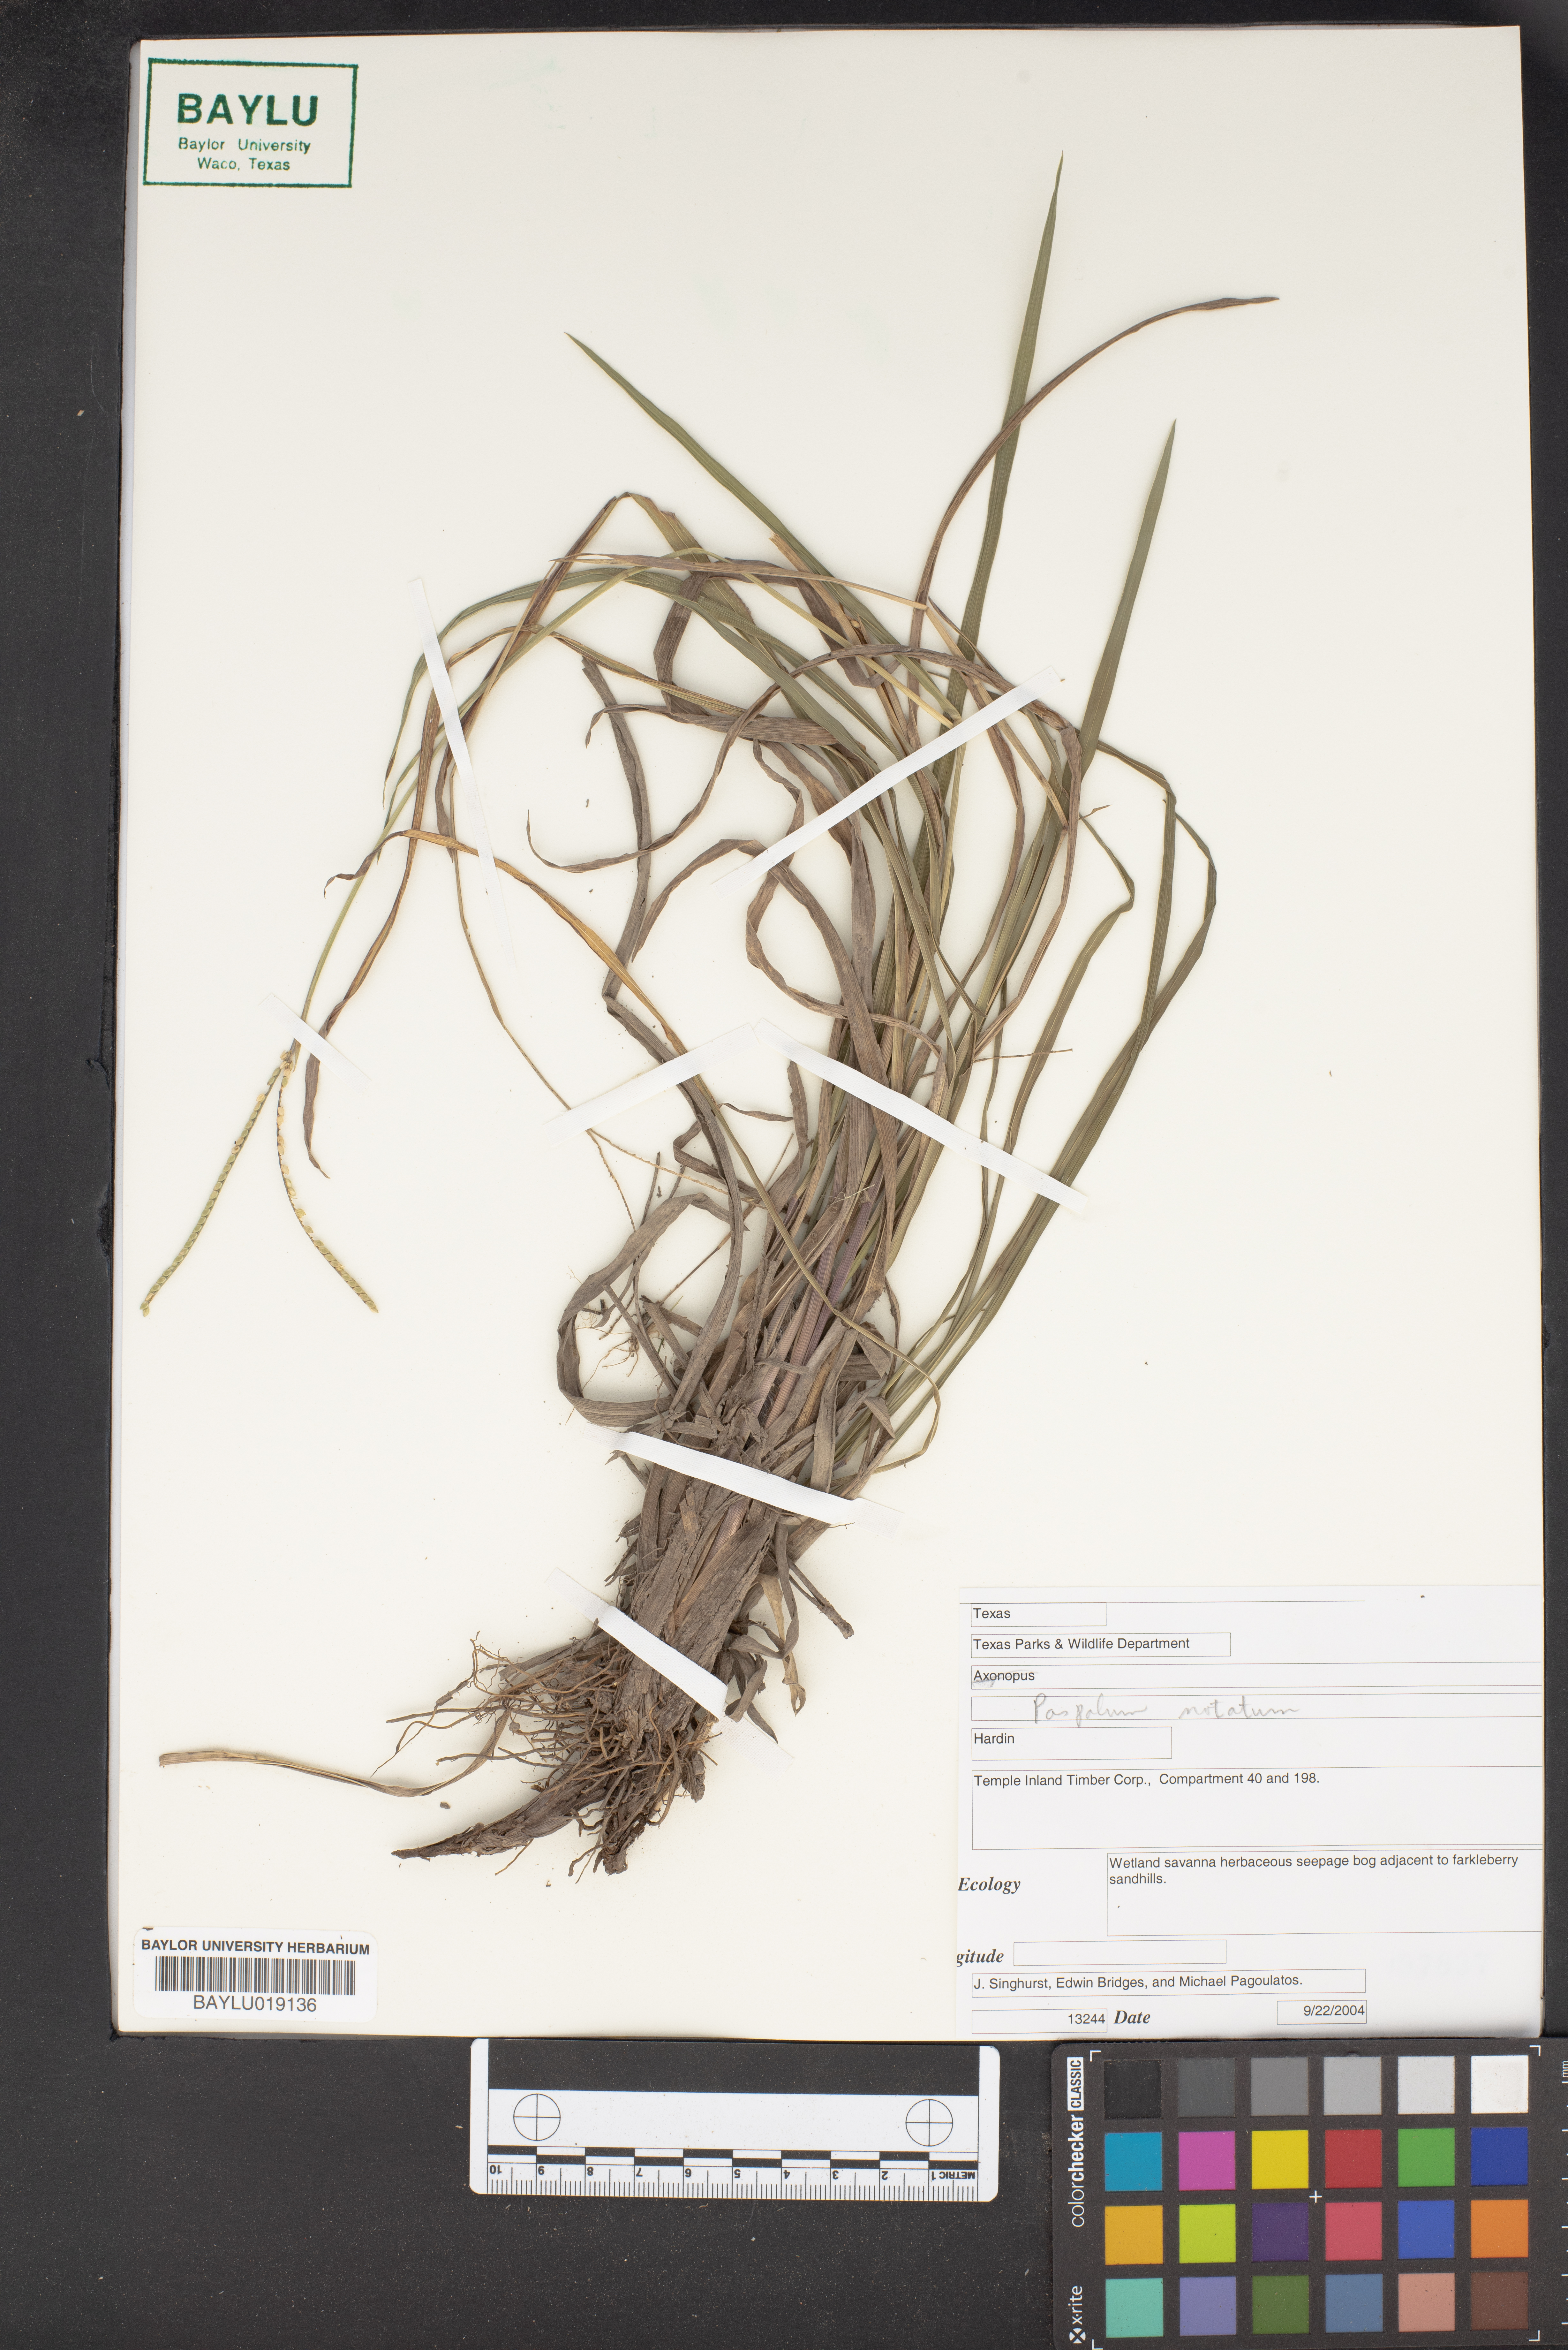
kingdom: Plantae
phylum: Tracheophyta
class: Liliopsida
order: Poales
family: Poaceae
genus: Paspalum
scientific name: Paspalum notatum
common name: Bahiagrass
